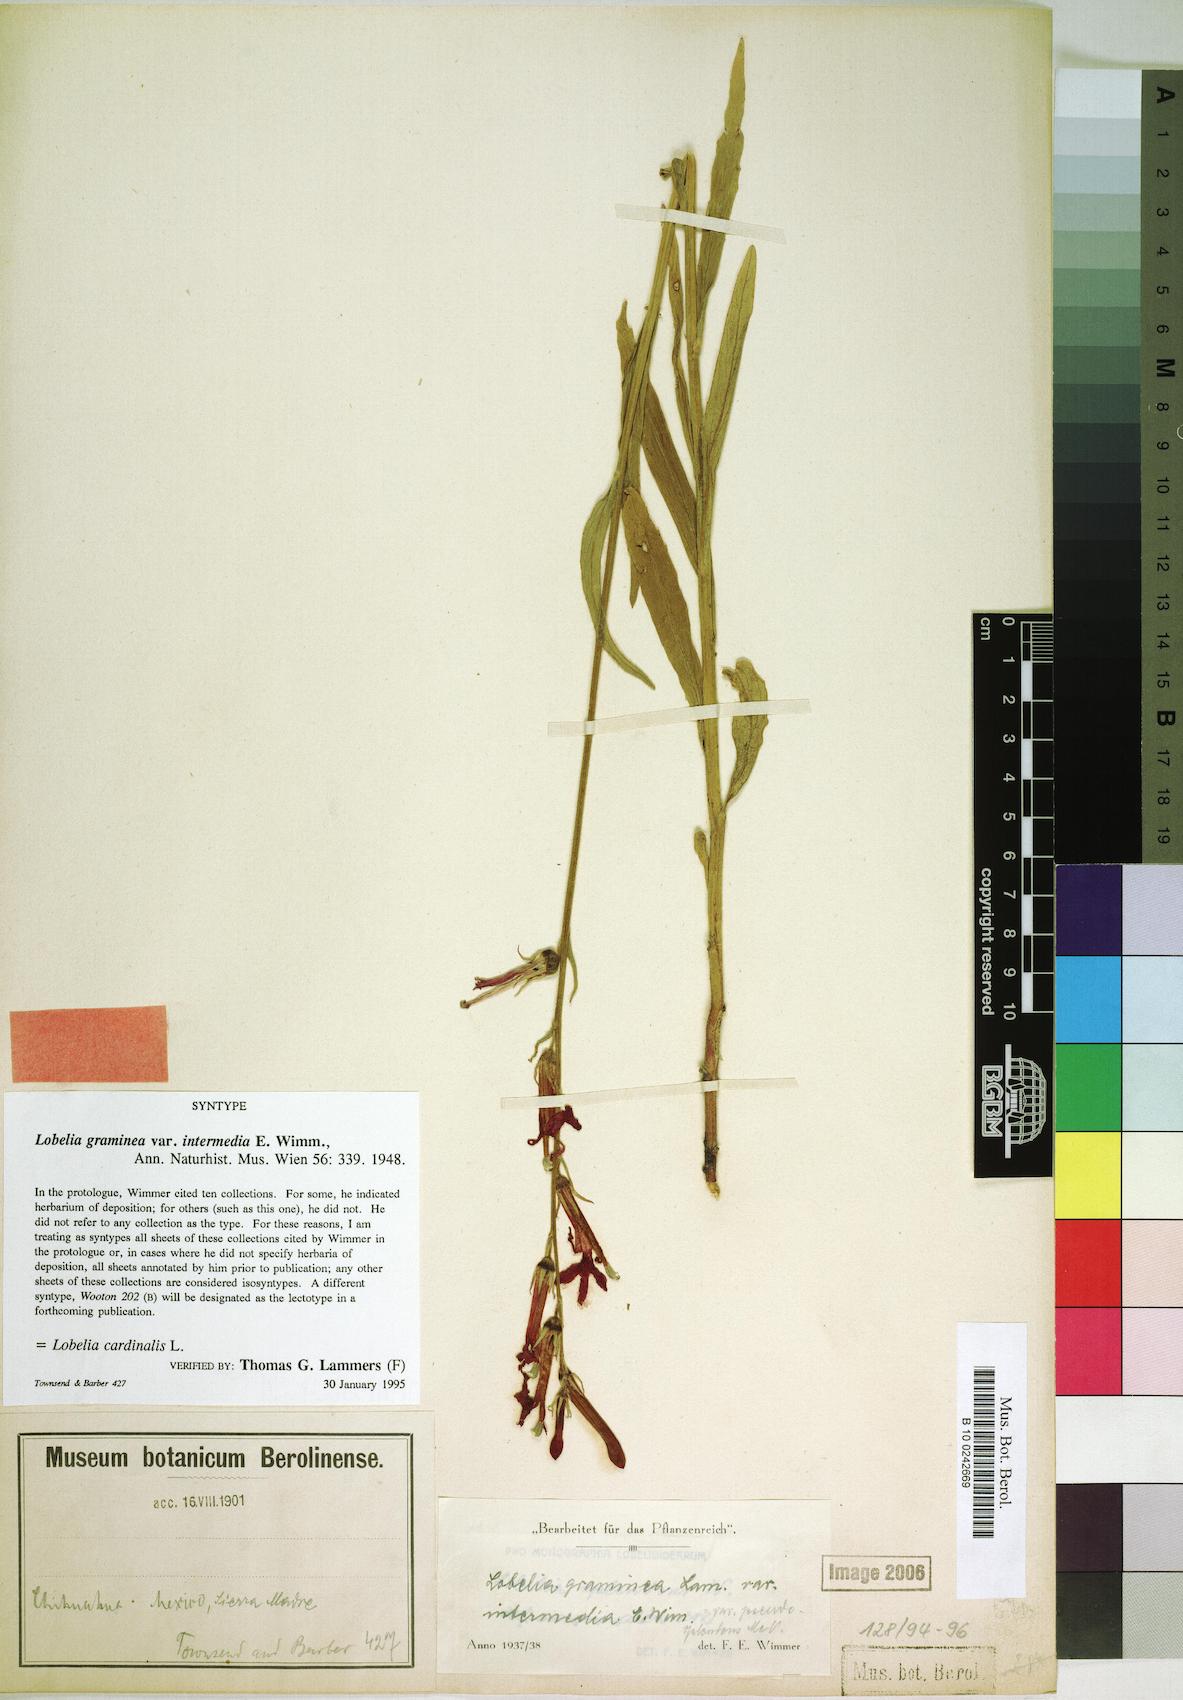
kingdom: Plantae
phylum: Tracheophyta
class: Magnoliopsida
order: Asterales
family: Campanulaceae
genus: Lobelia
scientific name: Lobelia cardinalis
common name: Cardinal flower
